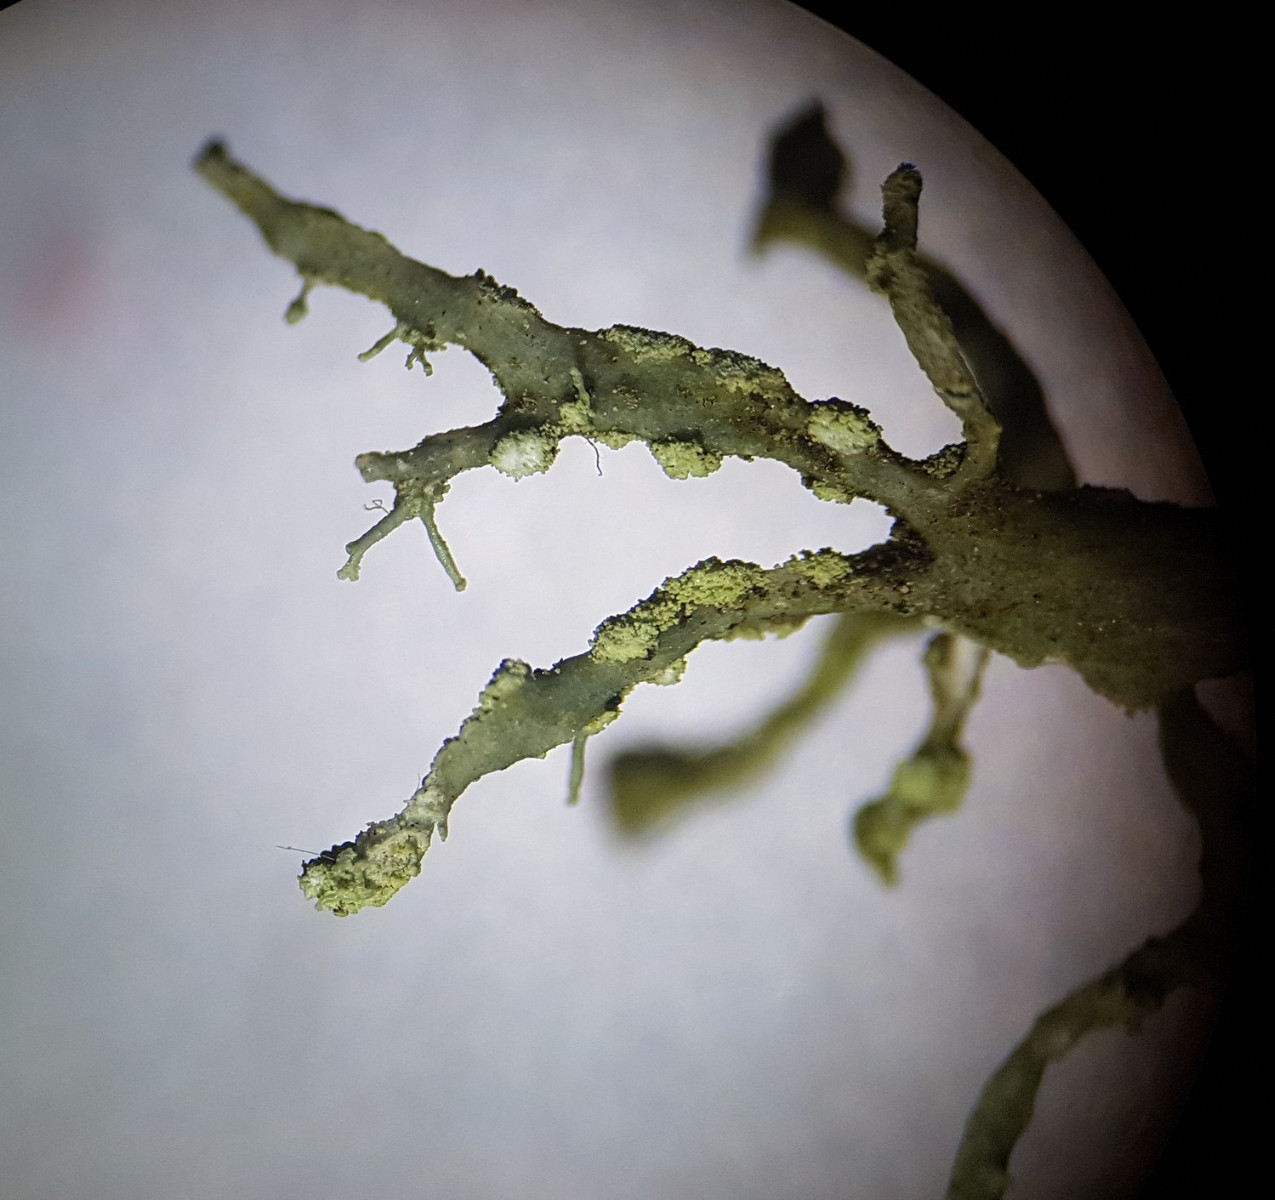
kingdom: Fungi
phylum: Ascomycota
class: Lecanoromycetes
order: Lecanorales
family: Ramalinaceae
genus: Ramalina
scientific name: Ramalina farinacea
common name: melet grenlav
